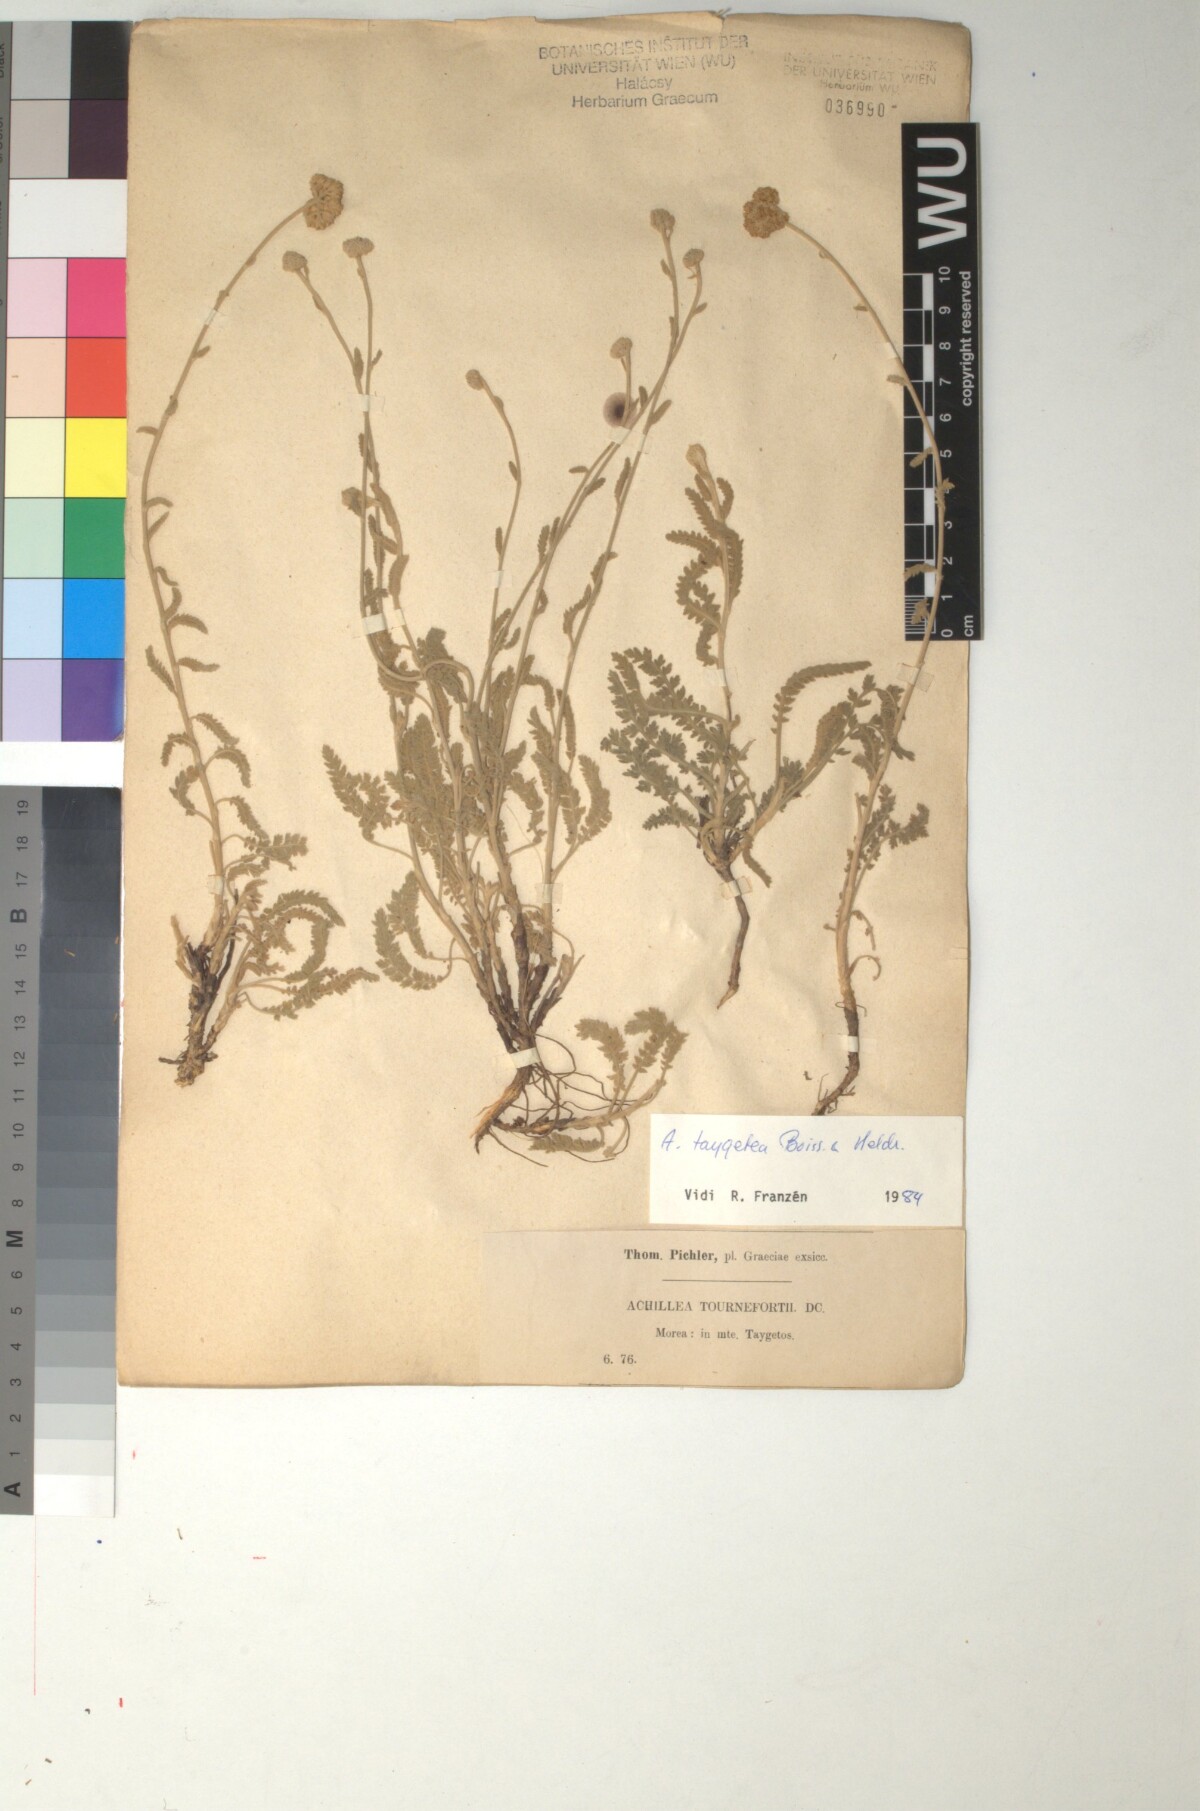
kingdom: Plantae
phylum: Tracheophyta
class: Magnoliopsida
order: Asterales
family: Asteraceae
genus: Achillea
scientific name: Achillea taygetea
